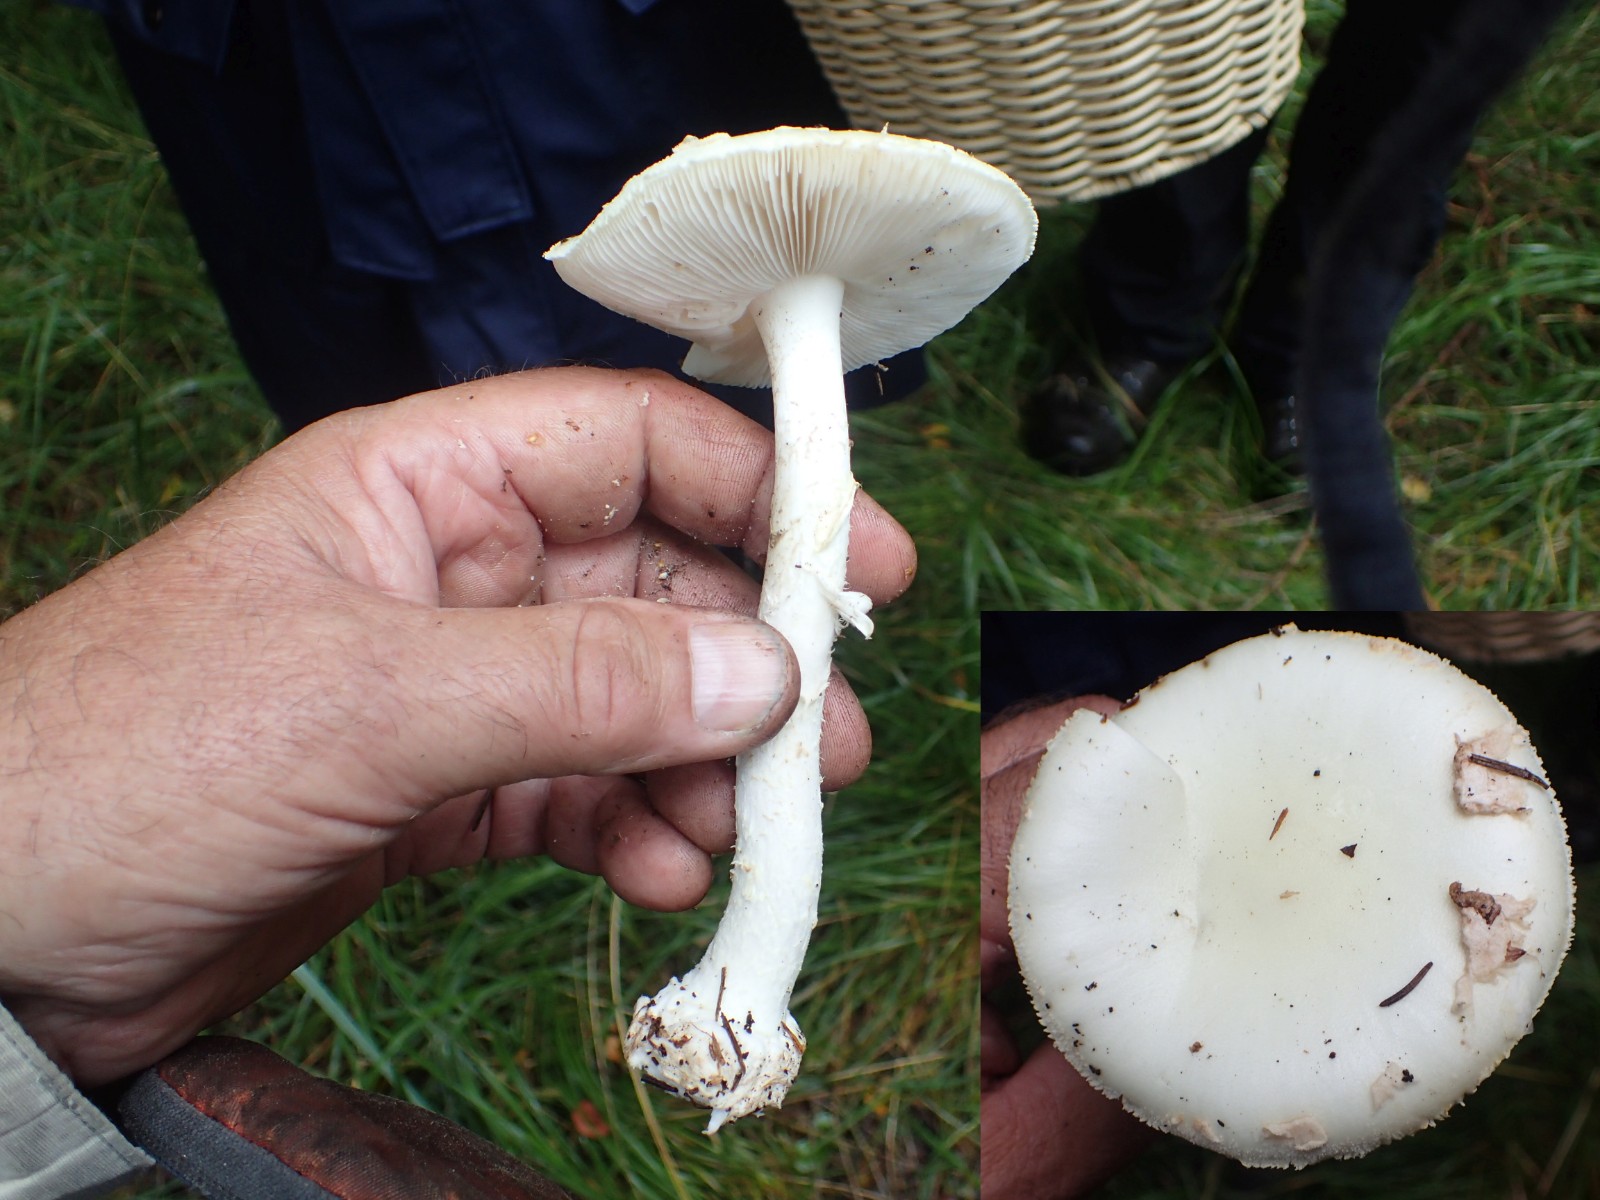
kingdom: Fungi
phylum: Basidiomycota
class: Agaricomycetes
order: Agaricales
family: Amanitaceae
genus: Amanita
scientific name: Amanita virosa
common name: snehvid fluesvamp
